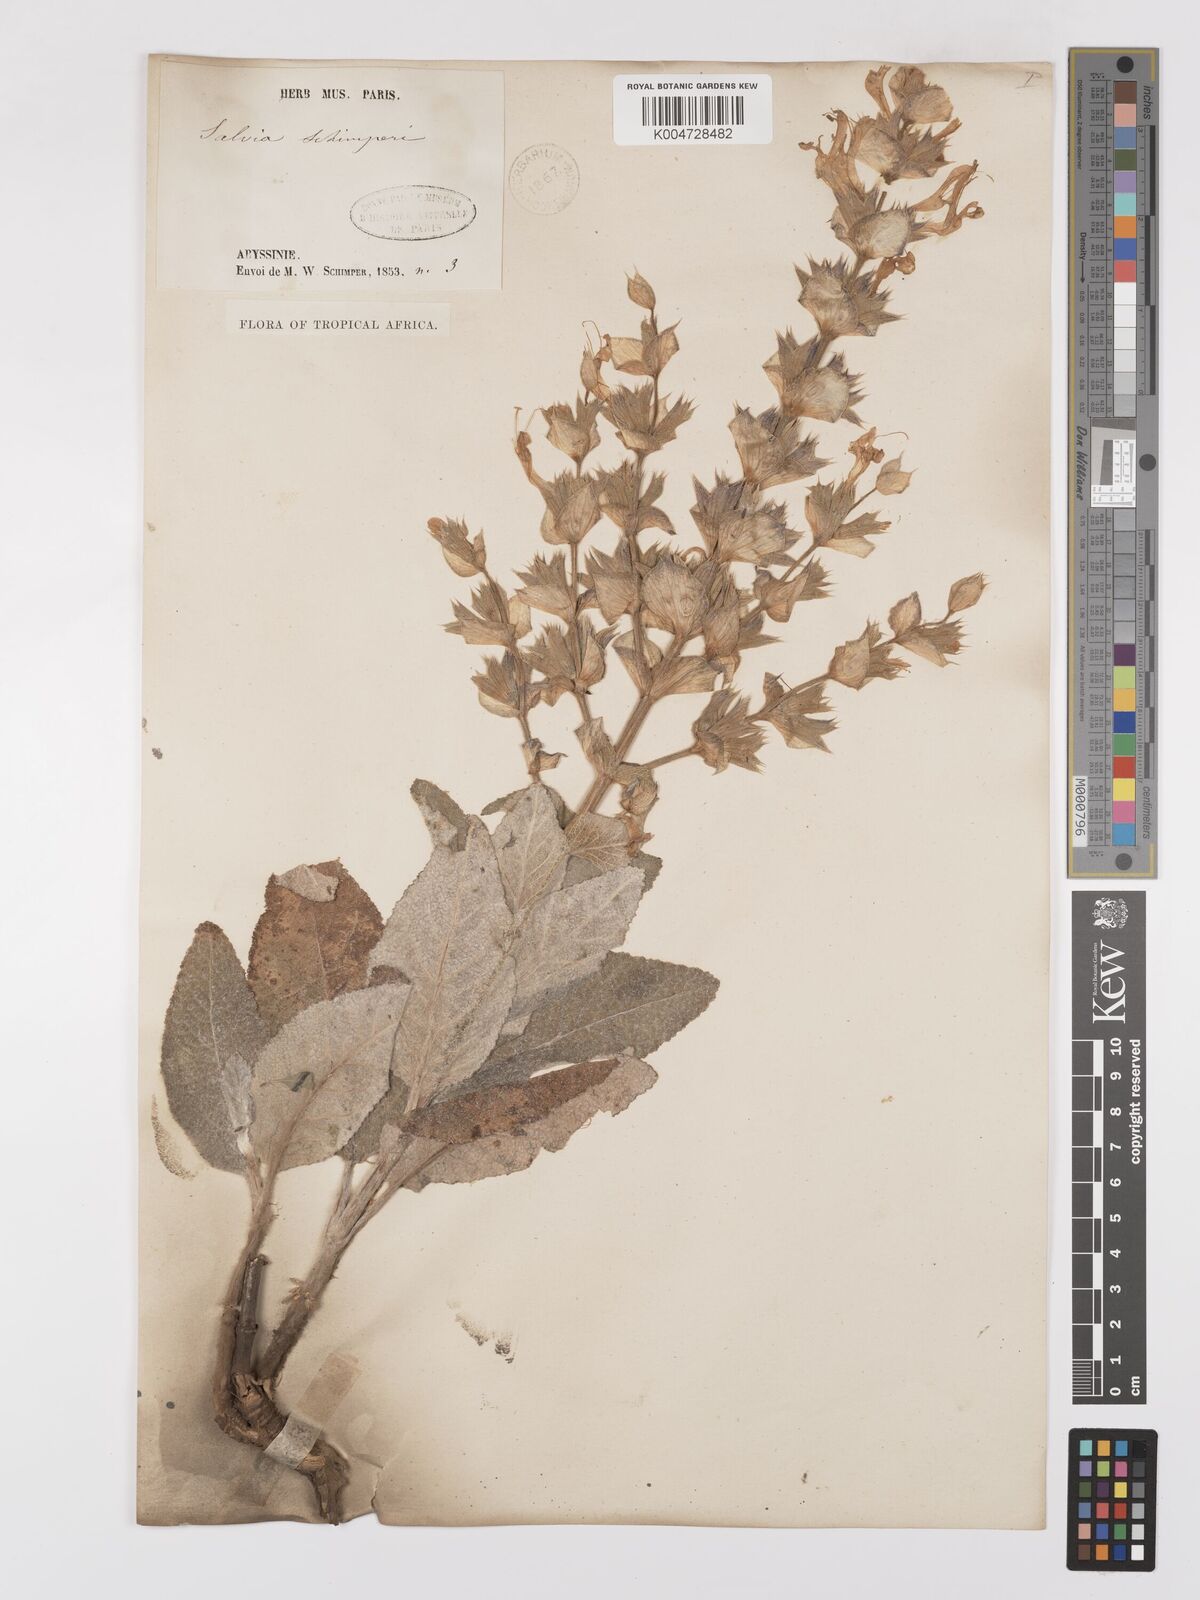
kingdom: Plantae
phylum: Tracheophyta
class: Magnoliopsida
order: Lamiales
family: Lamiaceae
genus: Salvia
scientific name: Salvia schimperi
